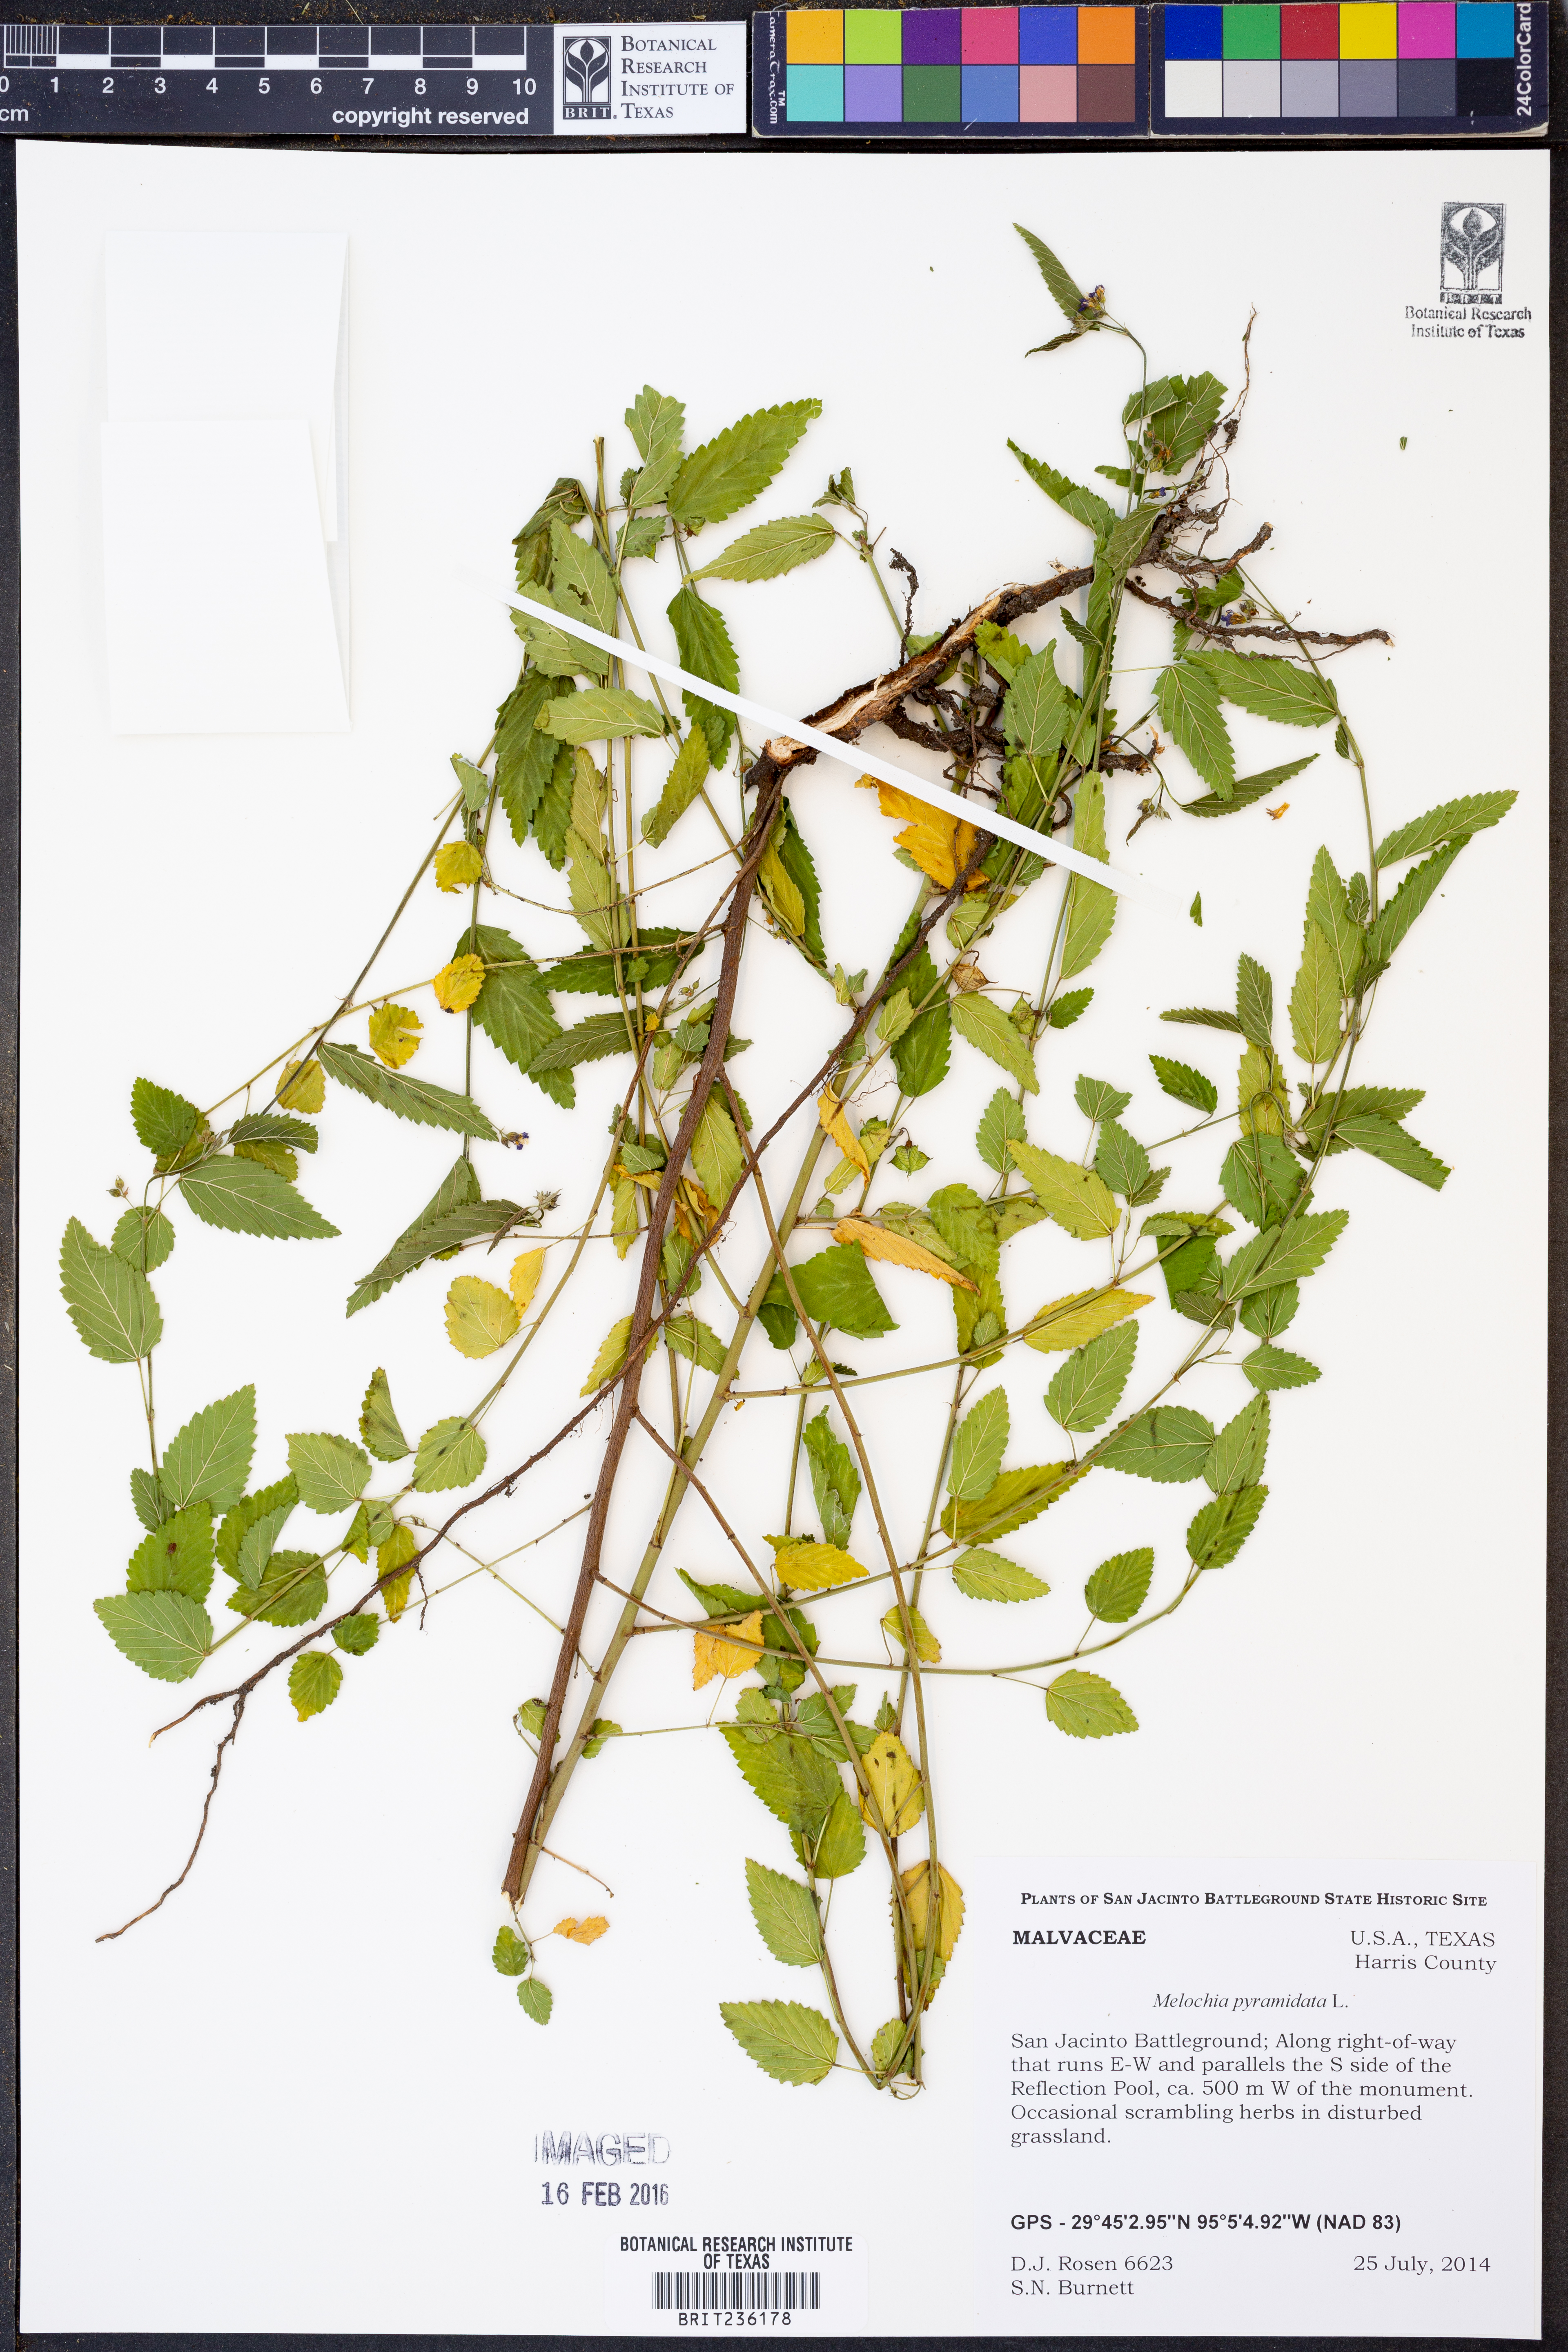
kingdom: Plantae
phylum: Tracheophyta
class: Magnoliopsida
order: Malvales
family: Malvaceae
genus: Melochia
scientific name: Melochia pyramidata
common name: Pyramidflower
